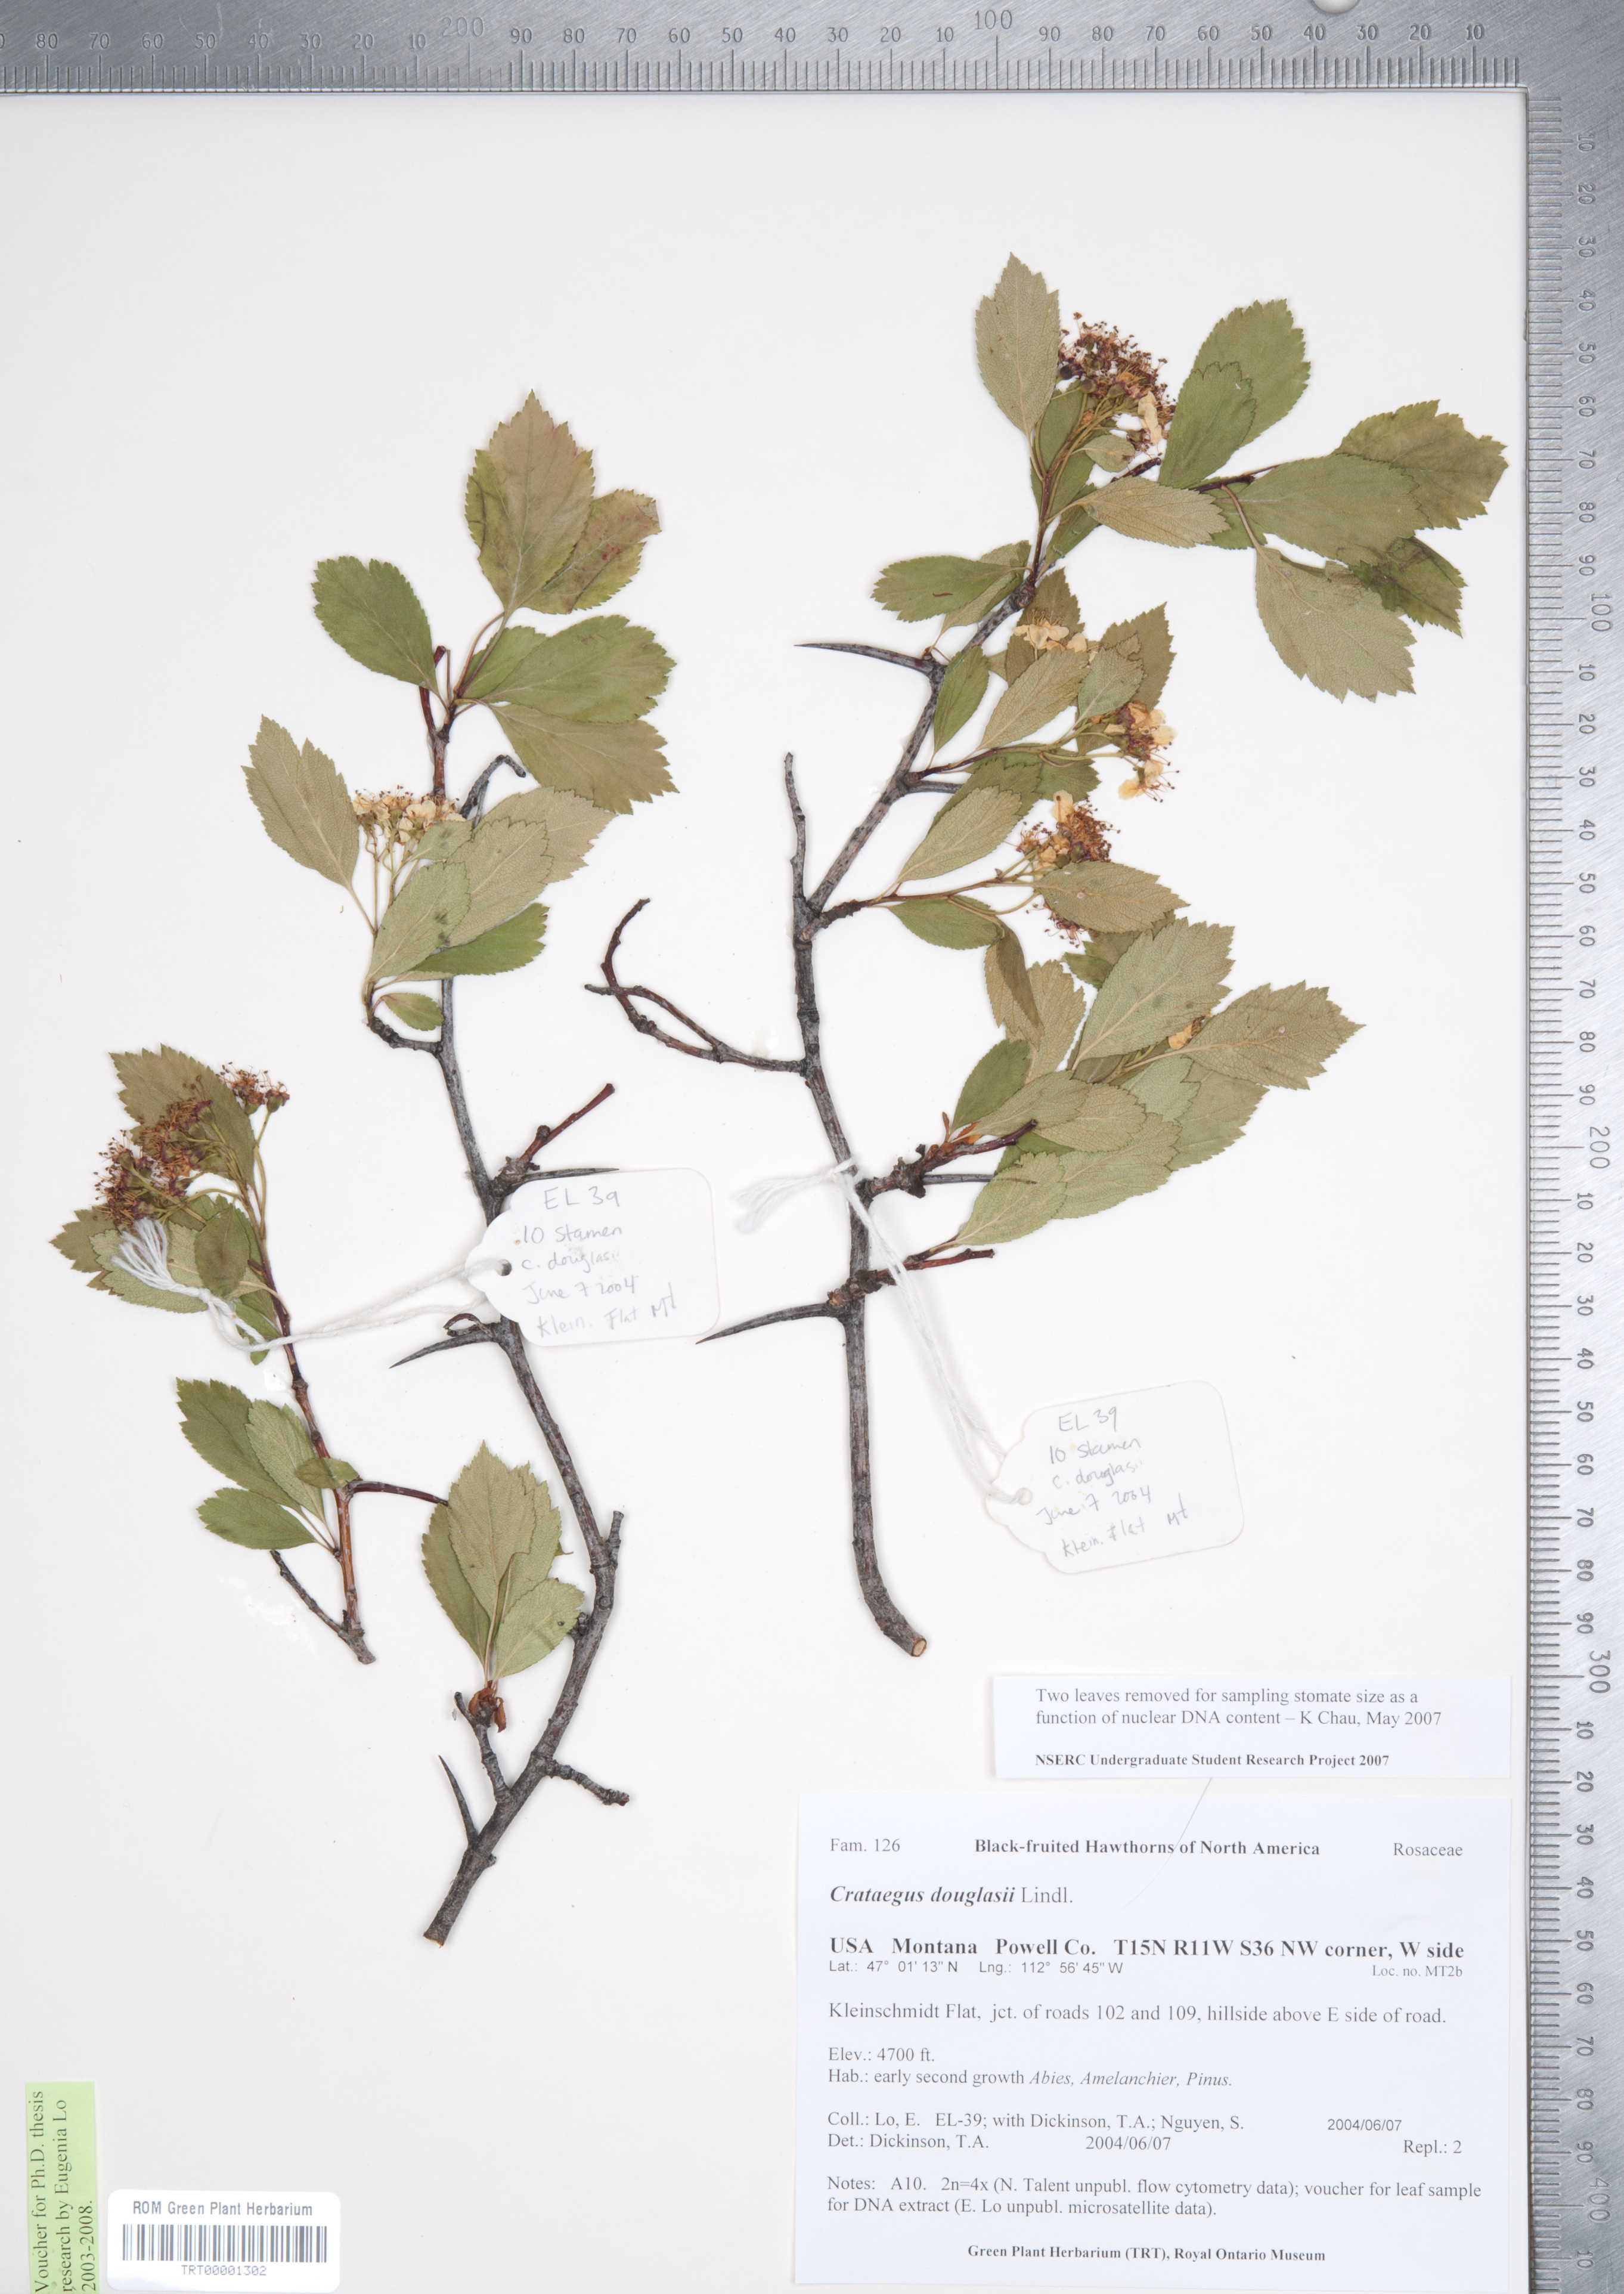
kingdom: Plantae
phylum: Tracheophyta
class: Magnoliopsida
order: Rosales
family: Rosaceae
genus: Crataegus
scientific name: Crataegus douglasii
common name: Black hawthorn
